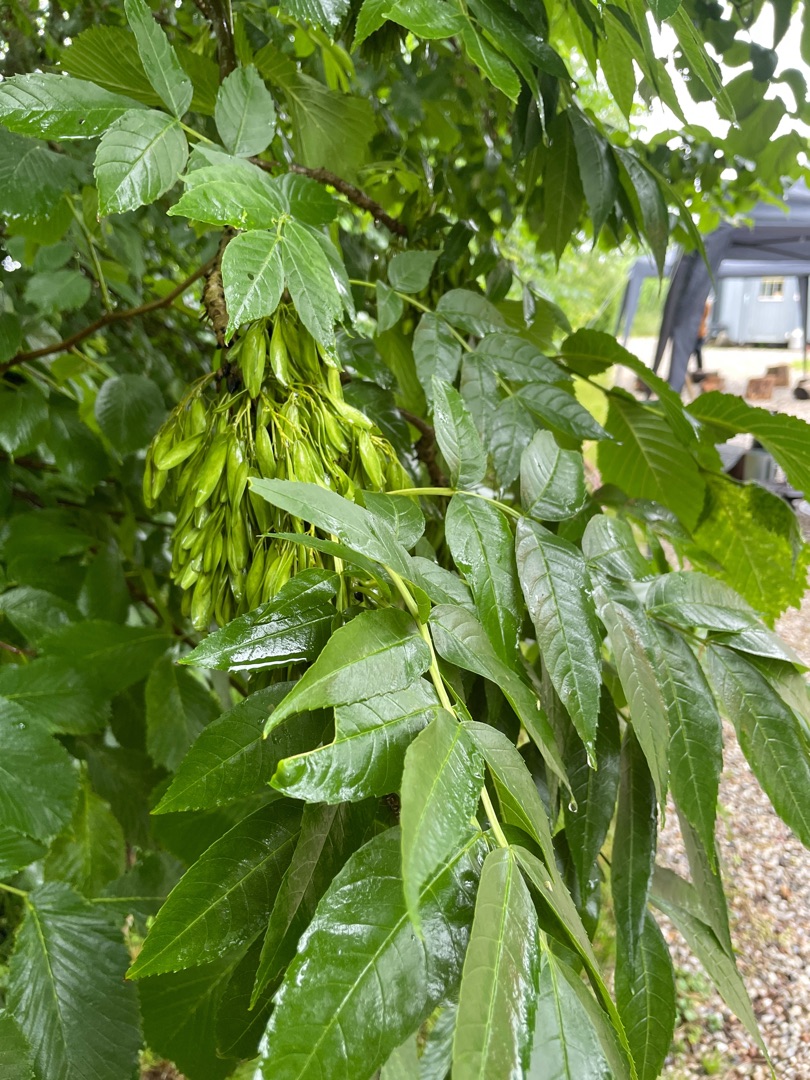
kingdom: Plantae
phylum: Tracheophyta
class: Magnoliopsida
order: Lamiales
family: Oleaceae
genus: Fraxinus
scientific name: Fraxinus excelsior
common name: Ask
